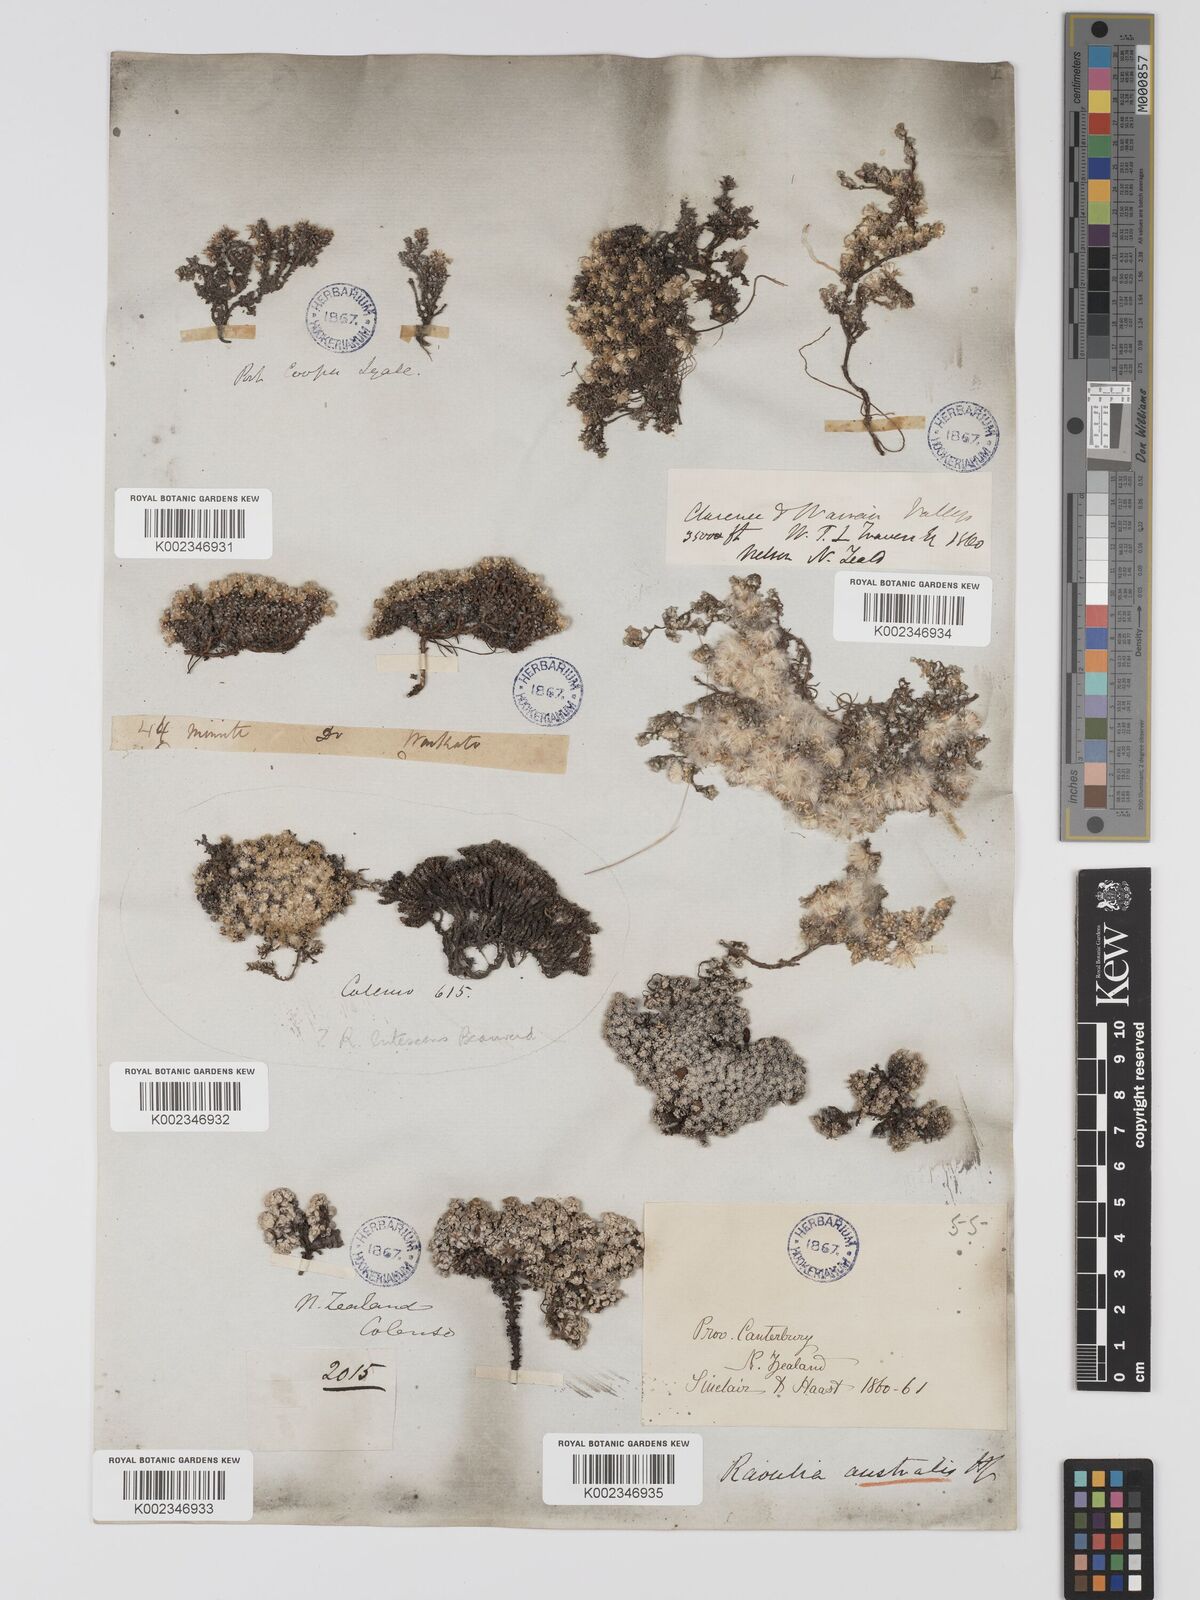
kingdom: Plantae
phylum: Tracheophyta
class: Magnoliopsida
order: Asterales
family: Asteraceae
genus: Raoulia
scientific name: Raoulia
